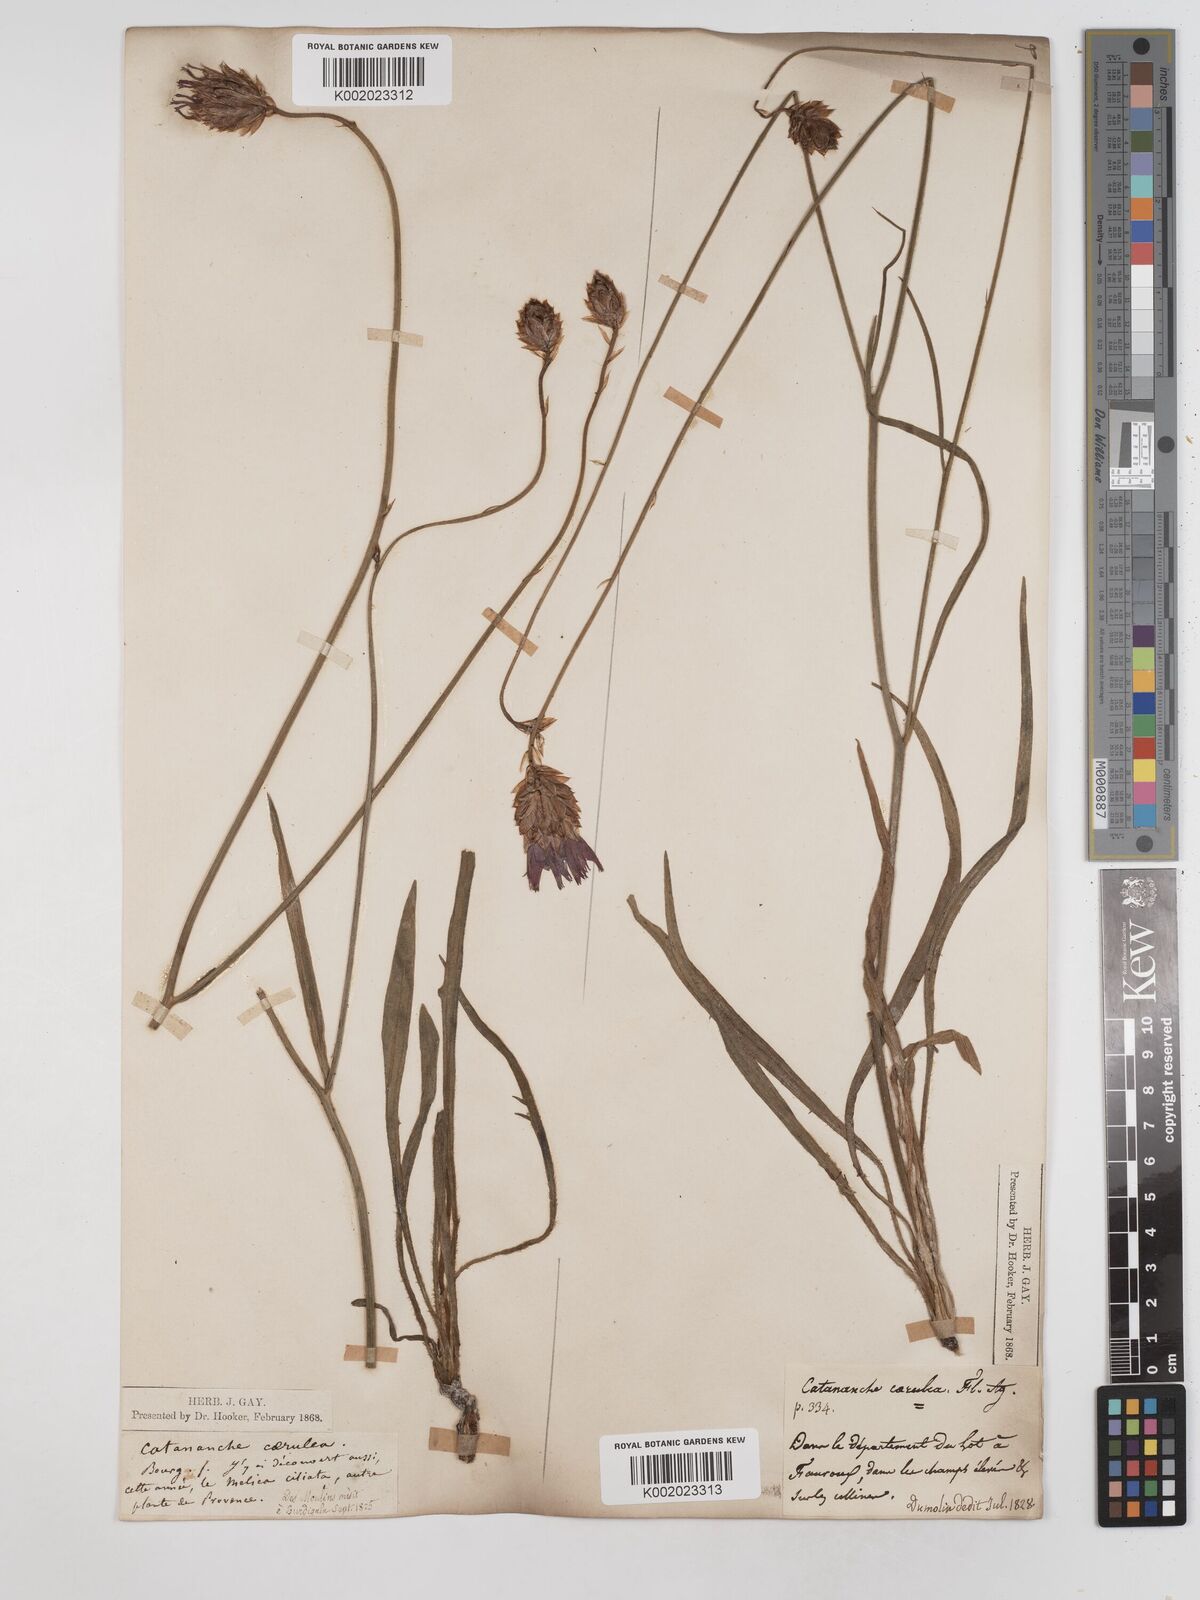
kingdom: Plantae
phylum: Tracheophyta
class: Magnoliopsida
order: Asterales
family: Asteraceae
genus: Catananche
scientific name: Catananche caerulea
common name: Blue cupidone
